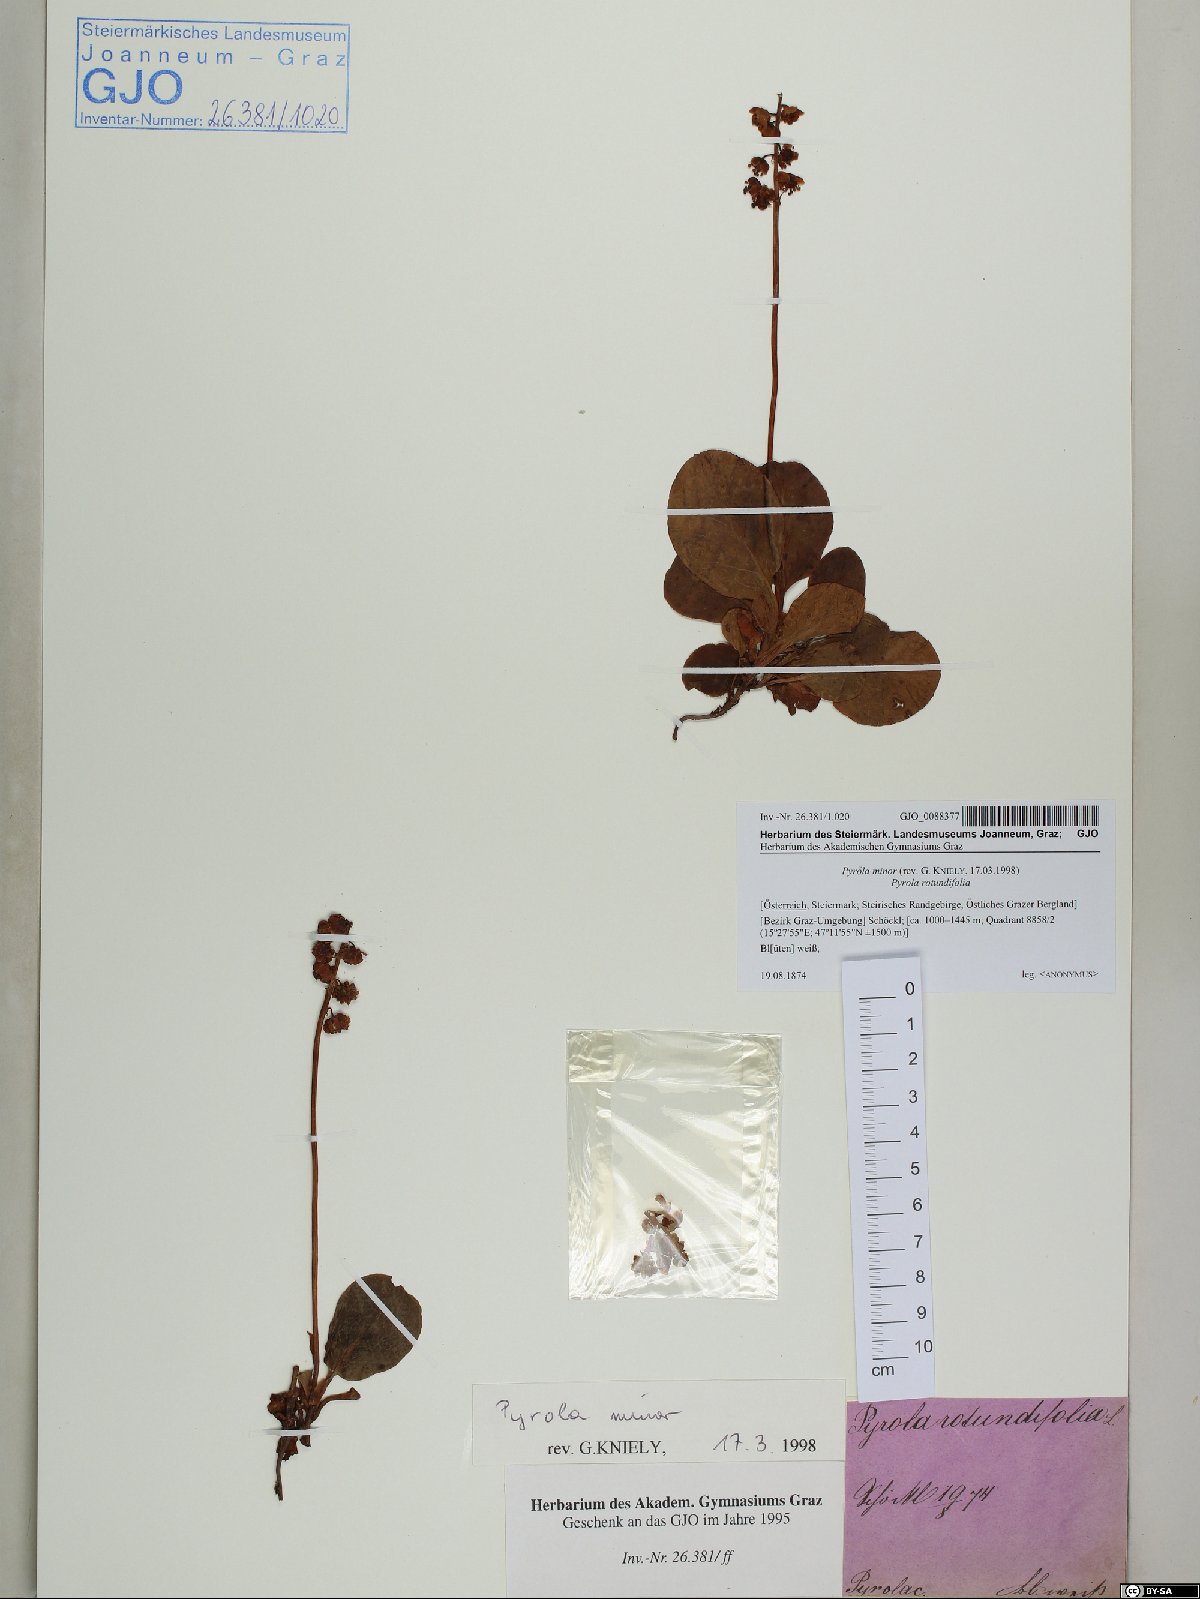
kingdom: Plantae
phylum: Tracheophyta
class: Magnoliopsida
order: Ericales
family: Ericaceae
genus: Pyrola
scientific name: Pyrola minor
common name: Common wintergreen
